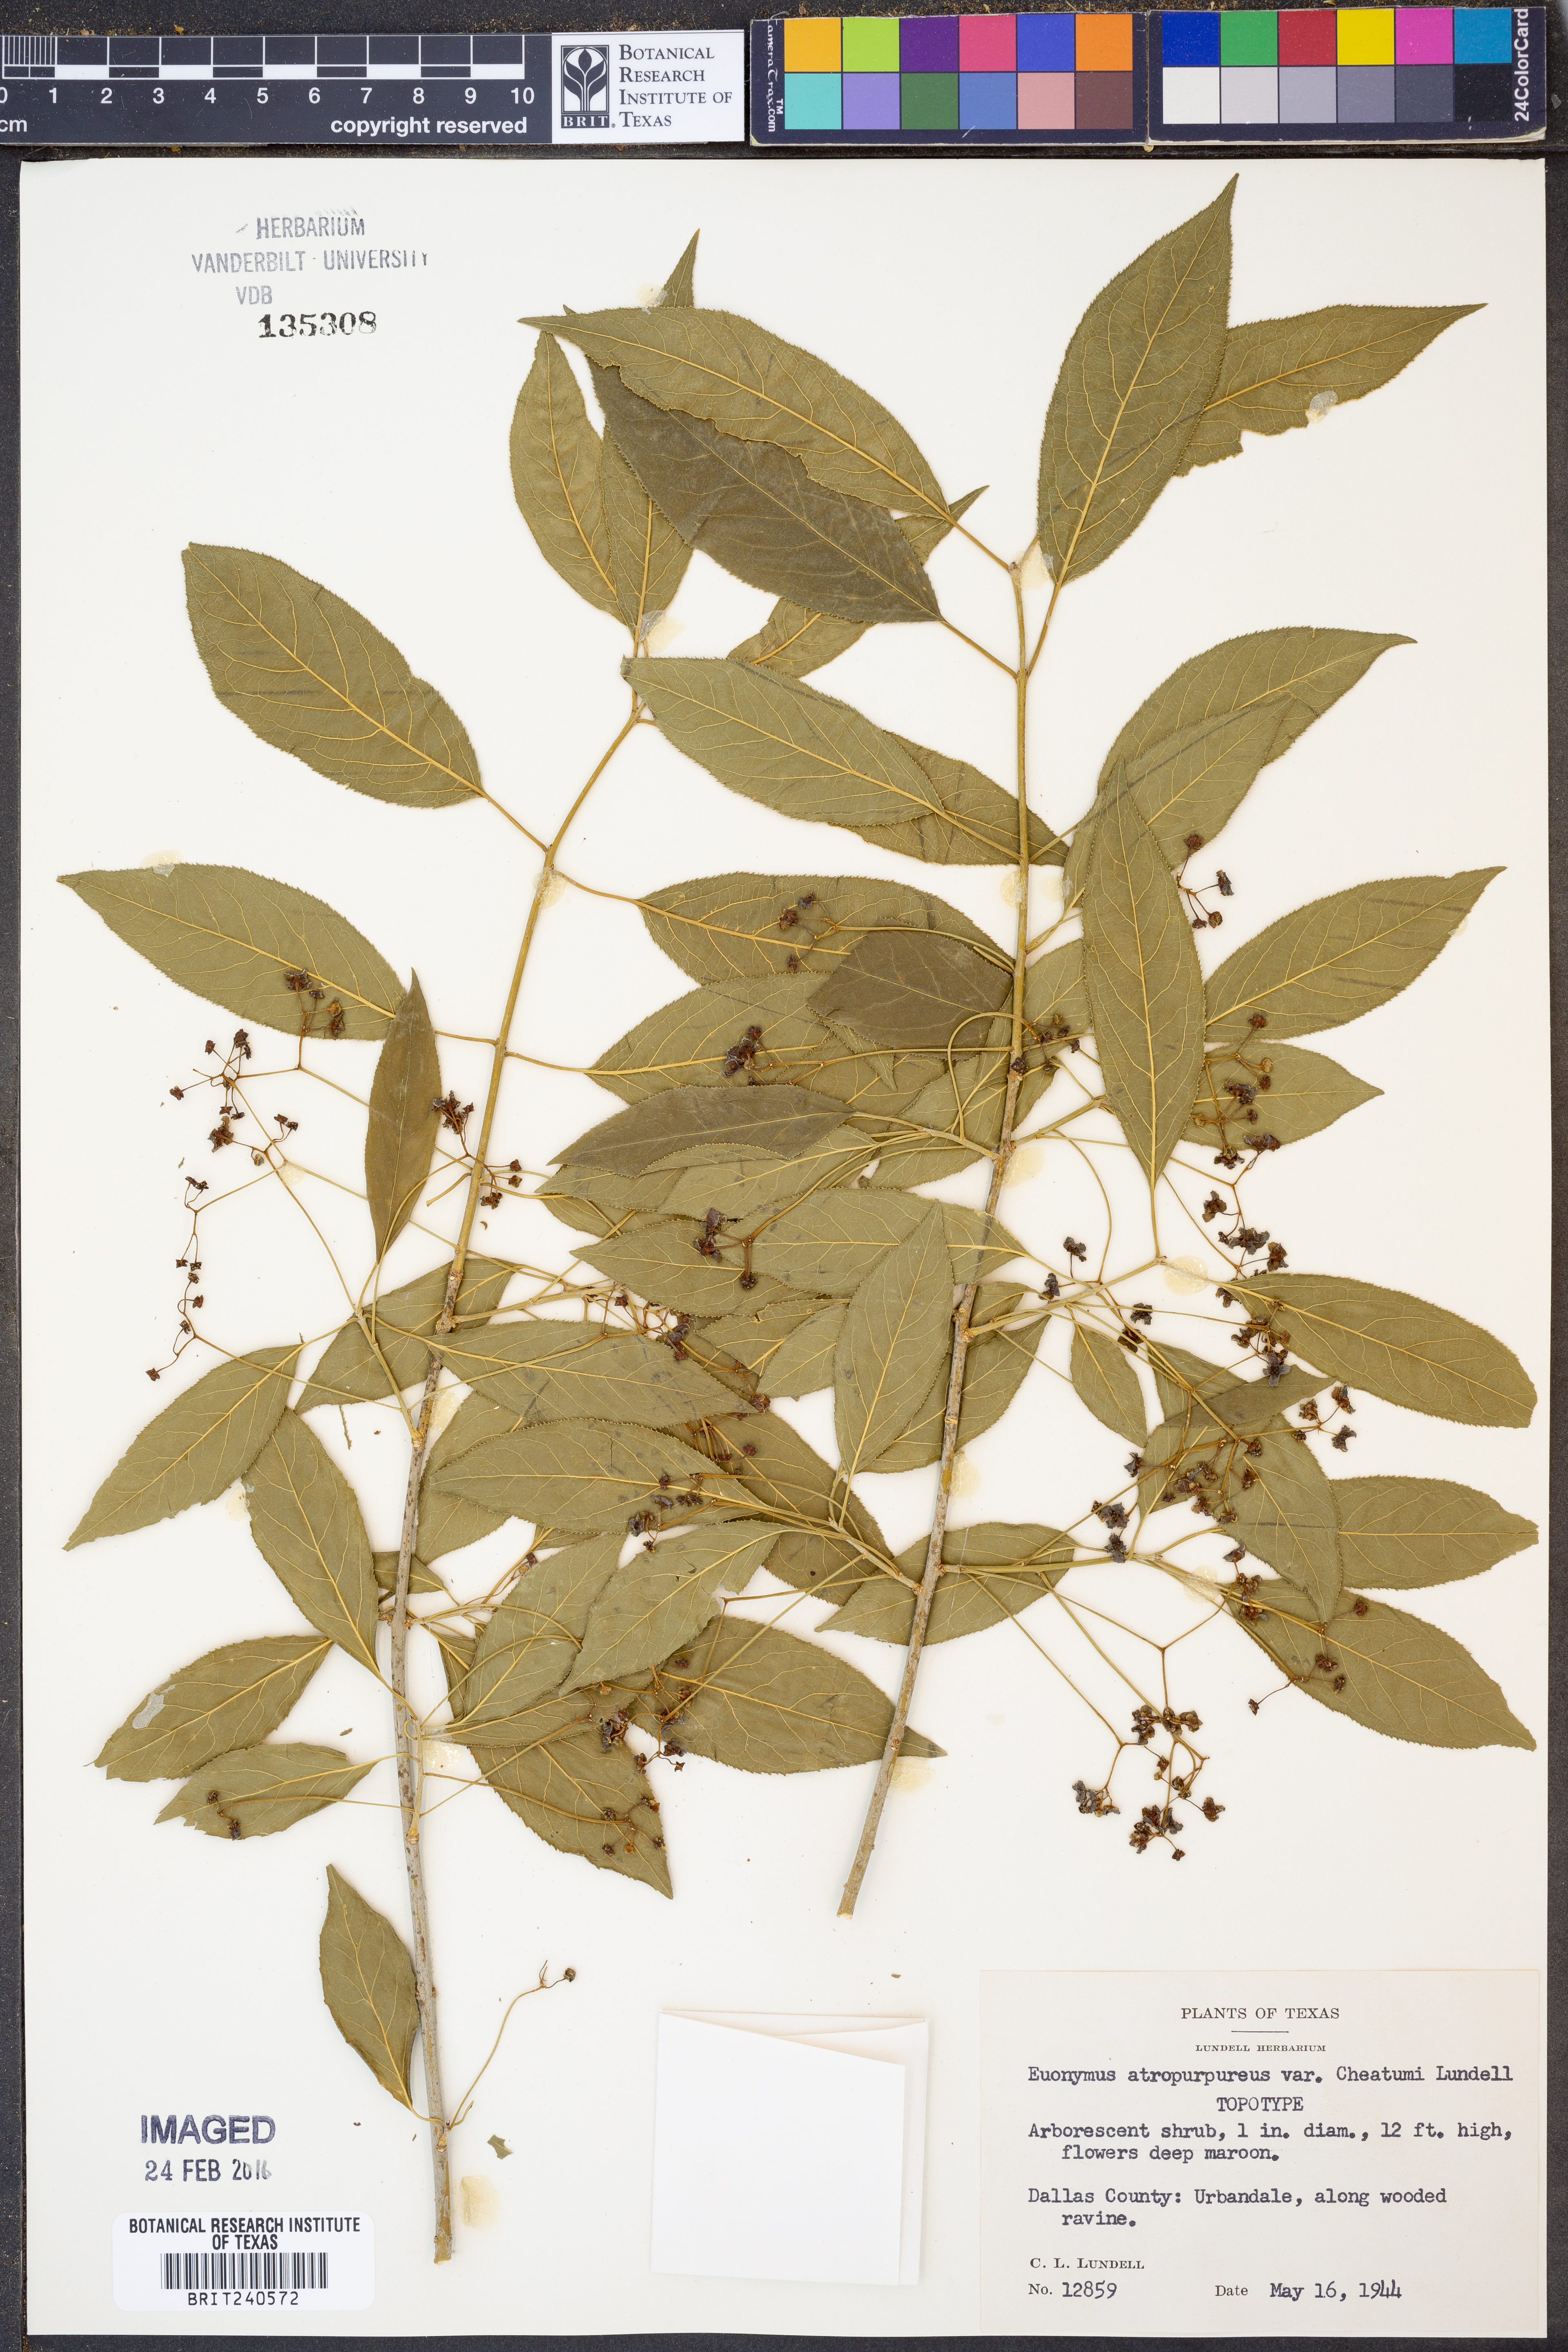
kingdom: Plantae
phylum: Tracheophyta
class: Magnoliopsida
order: Celastrales
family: Celastraceae
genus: Euonymus
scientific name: Euonymus atropurpureus
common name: Eastern wahoo
